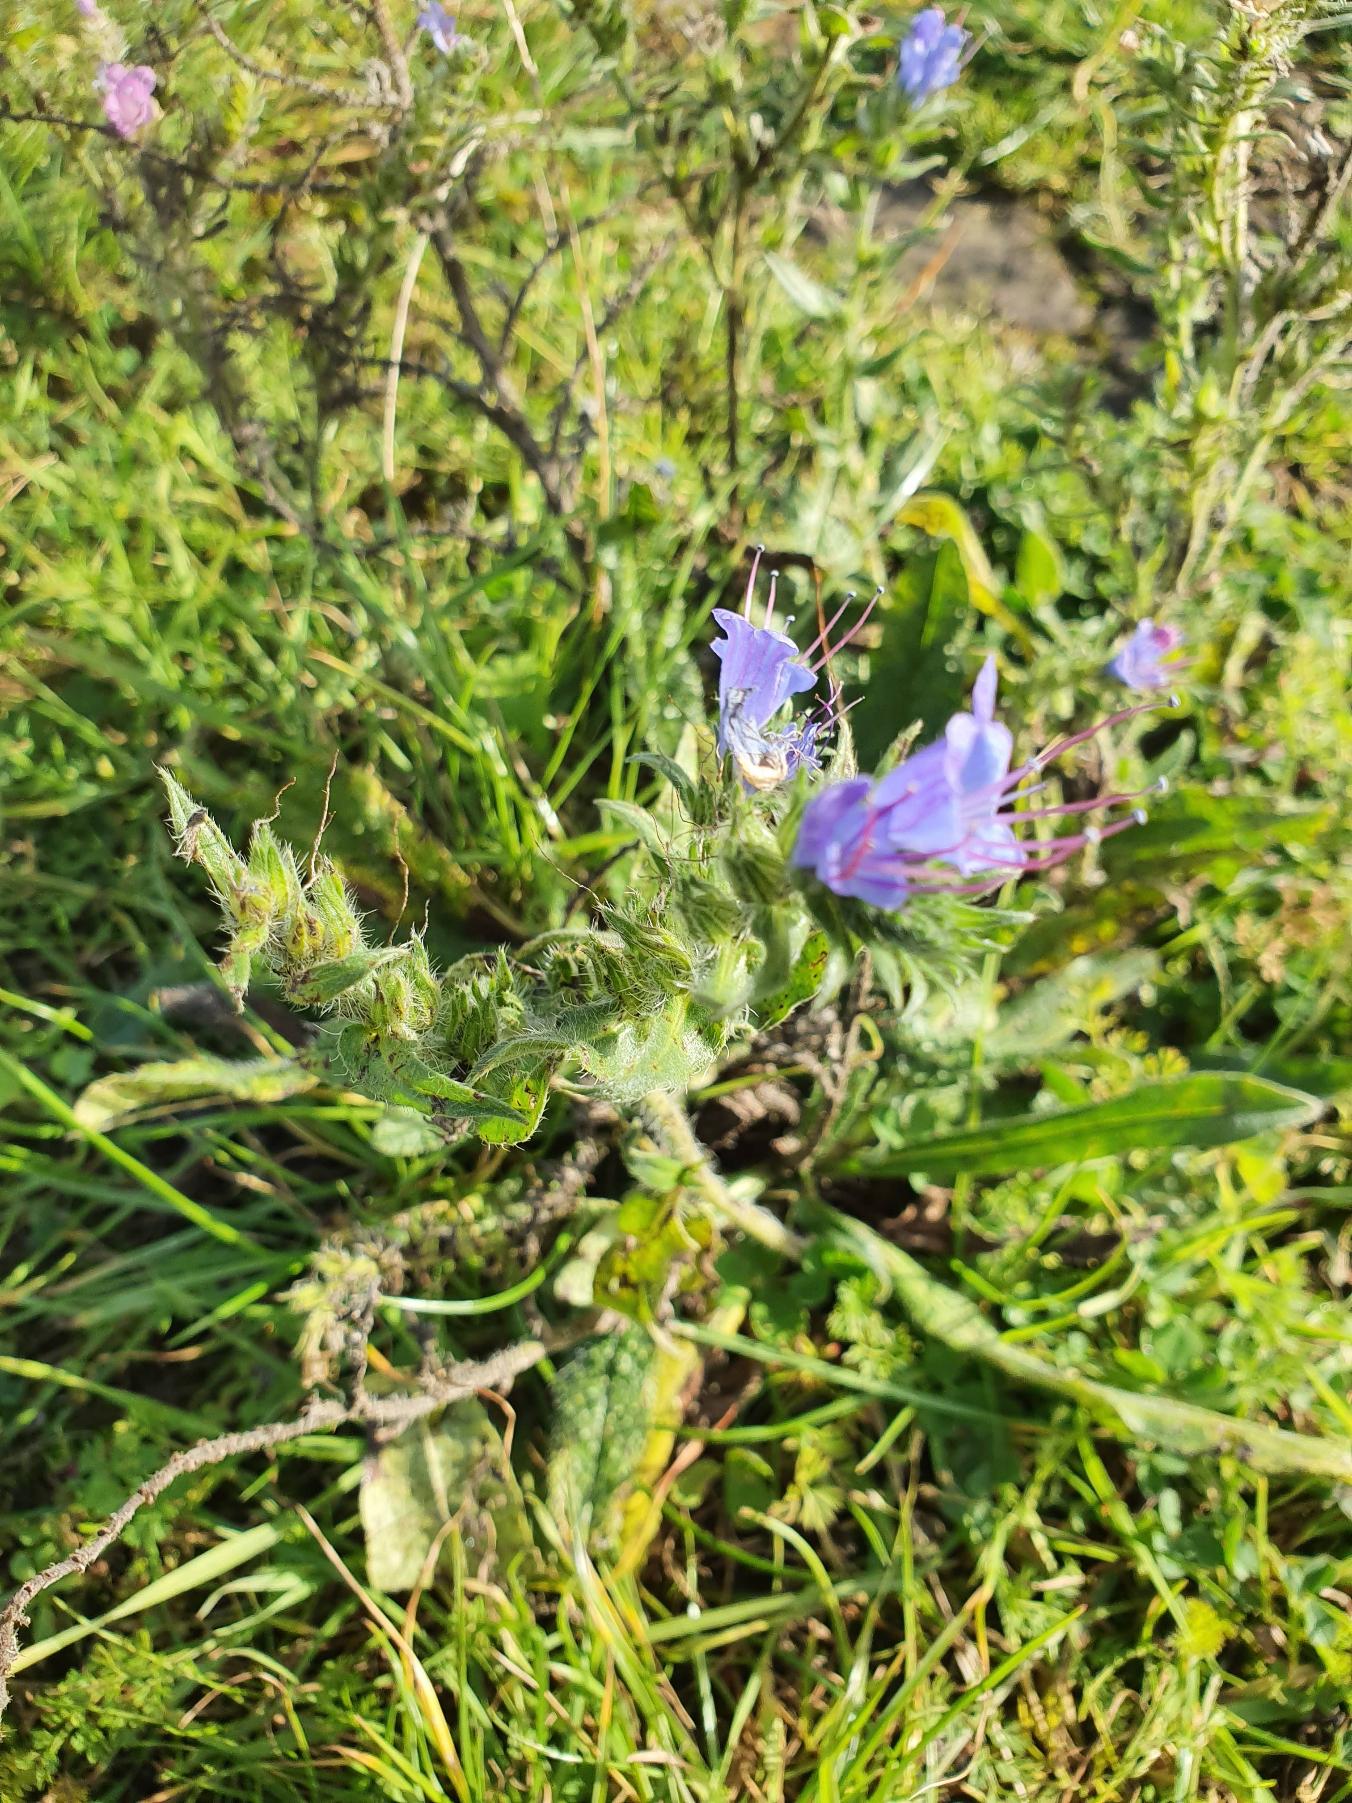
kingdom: Plantae
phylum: Tracheophyta
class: Magnoliopsida
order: Boraginales
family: Boraginaceae
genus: Echium
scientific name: Echium vulgare
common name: Slangehoved
